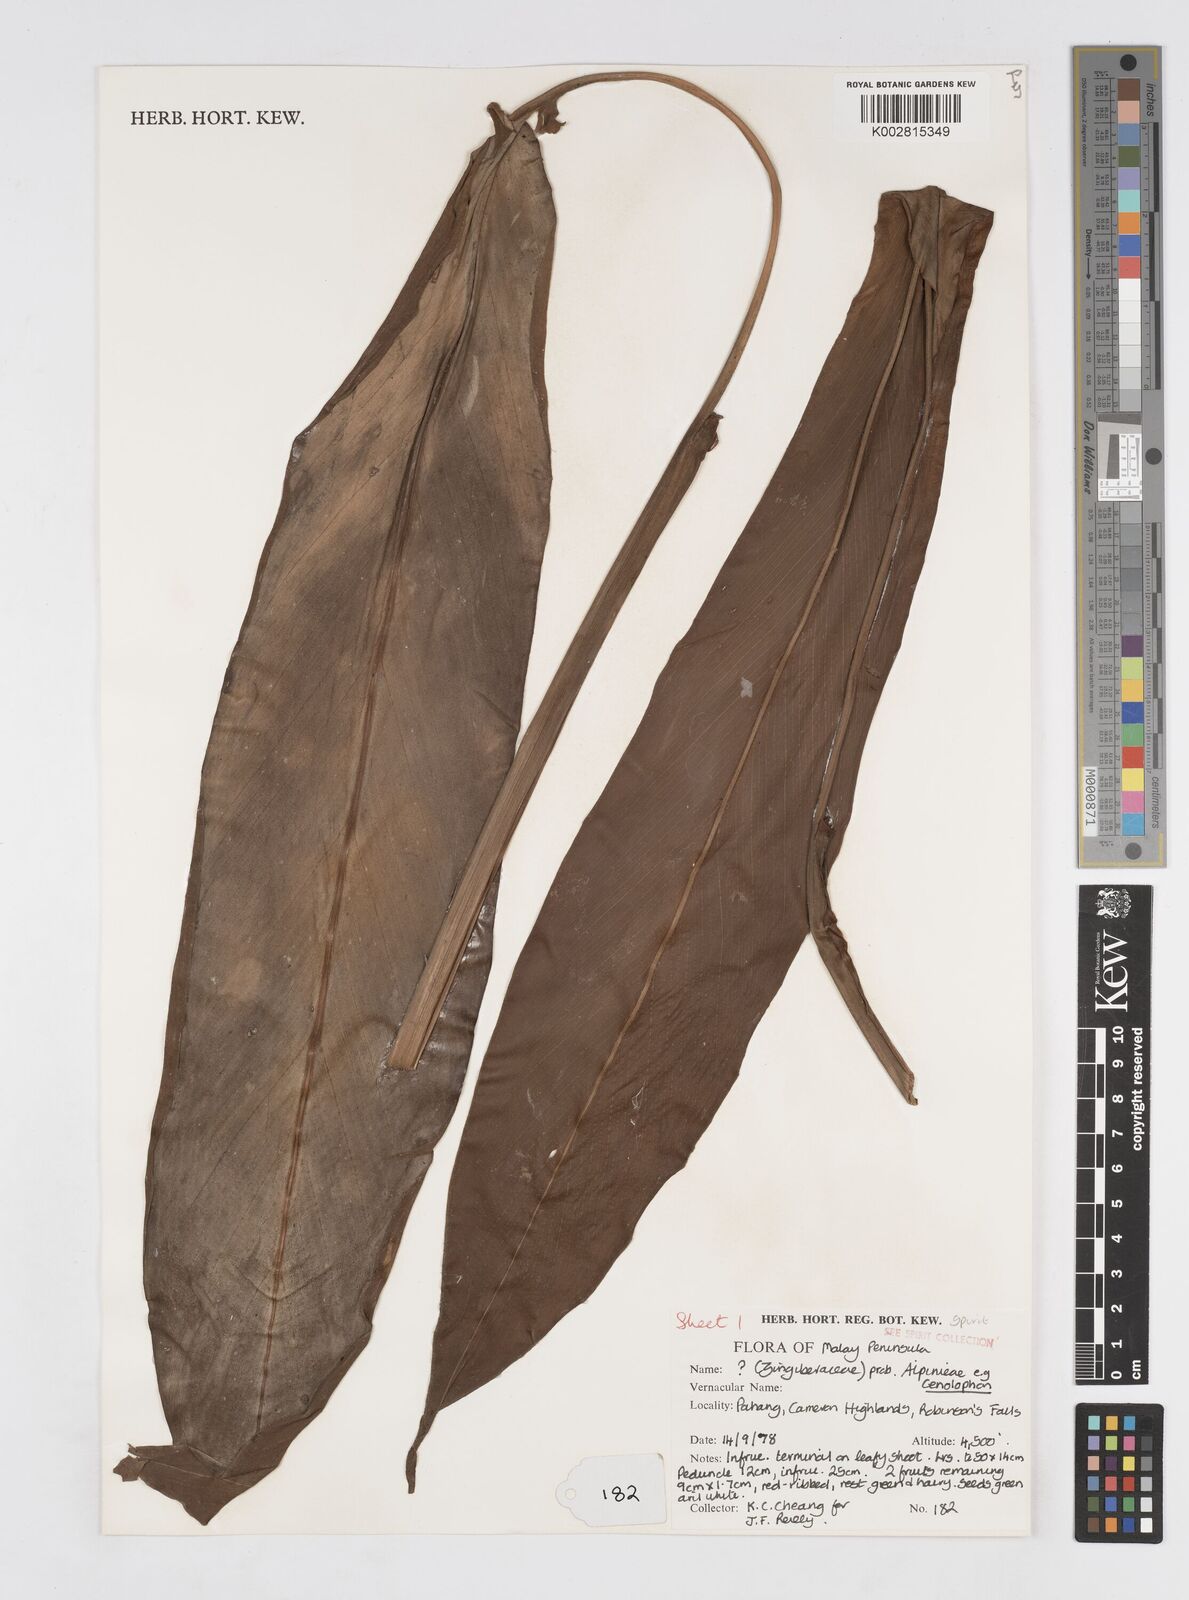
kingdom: Plantae
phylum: Tracheophyta
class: Liliopsida
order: Zingiberales
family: Zingiberaceae
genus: Alpinia
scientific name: Alpinia
